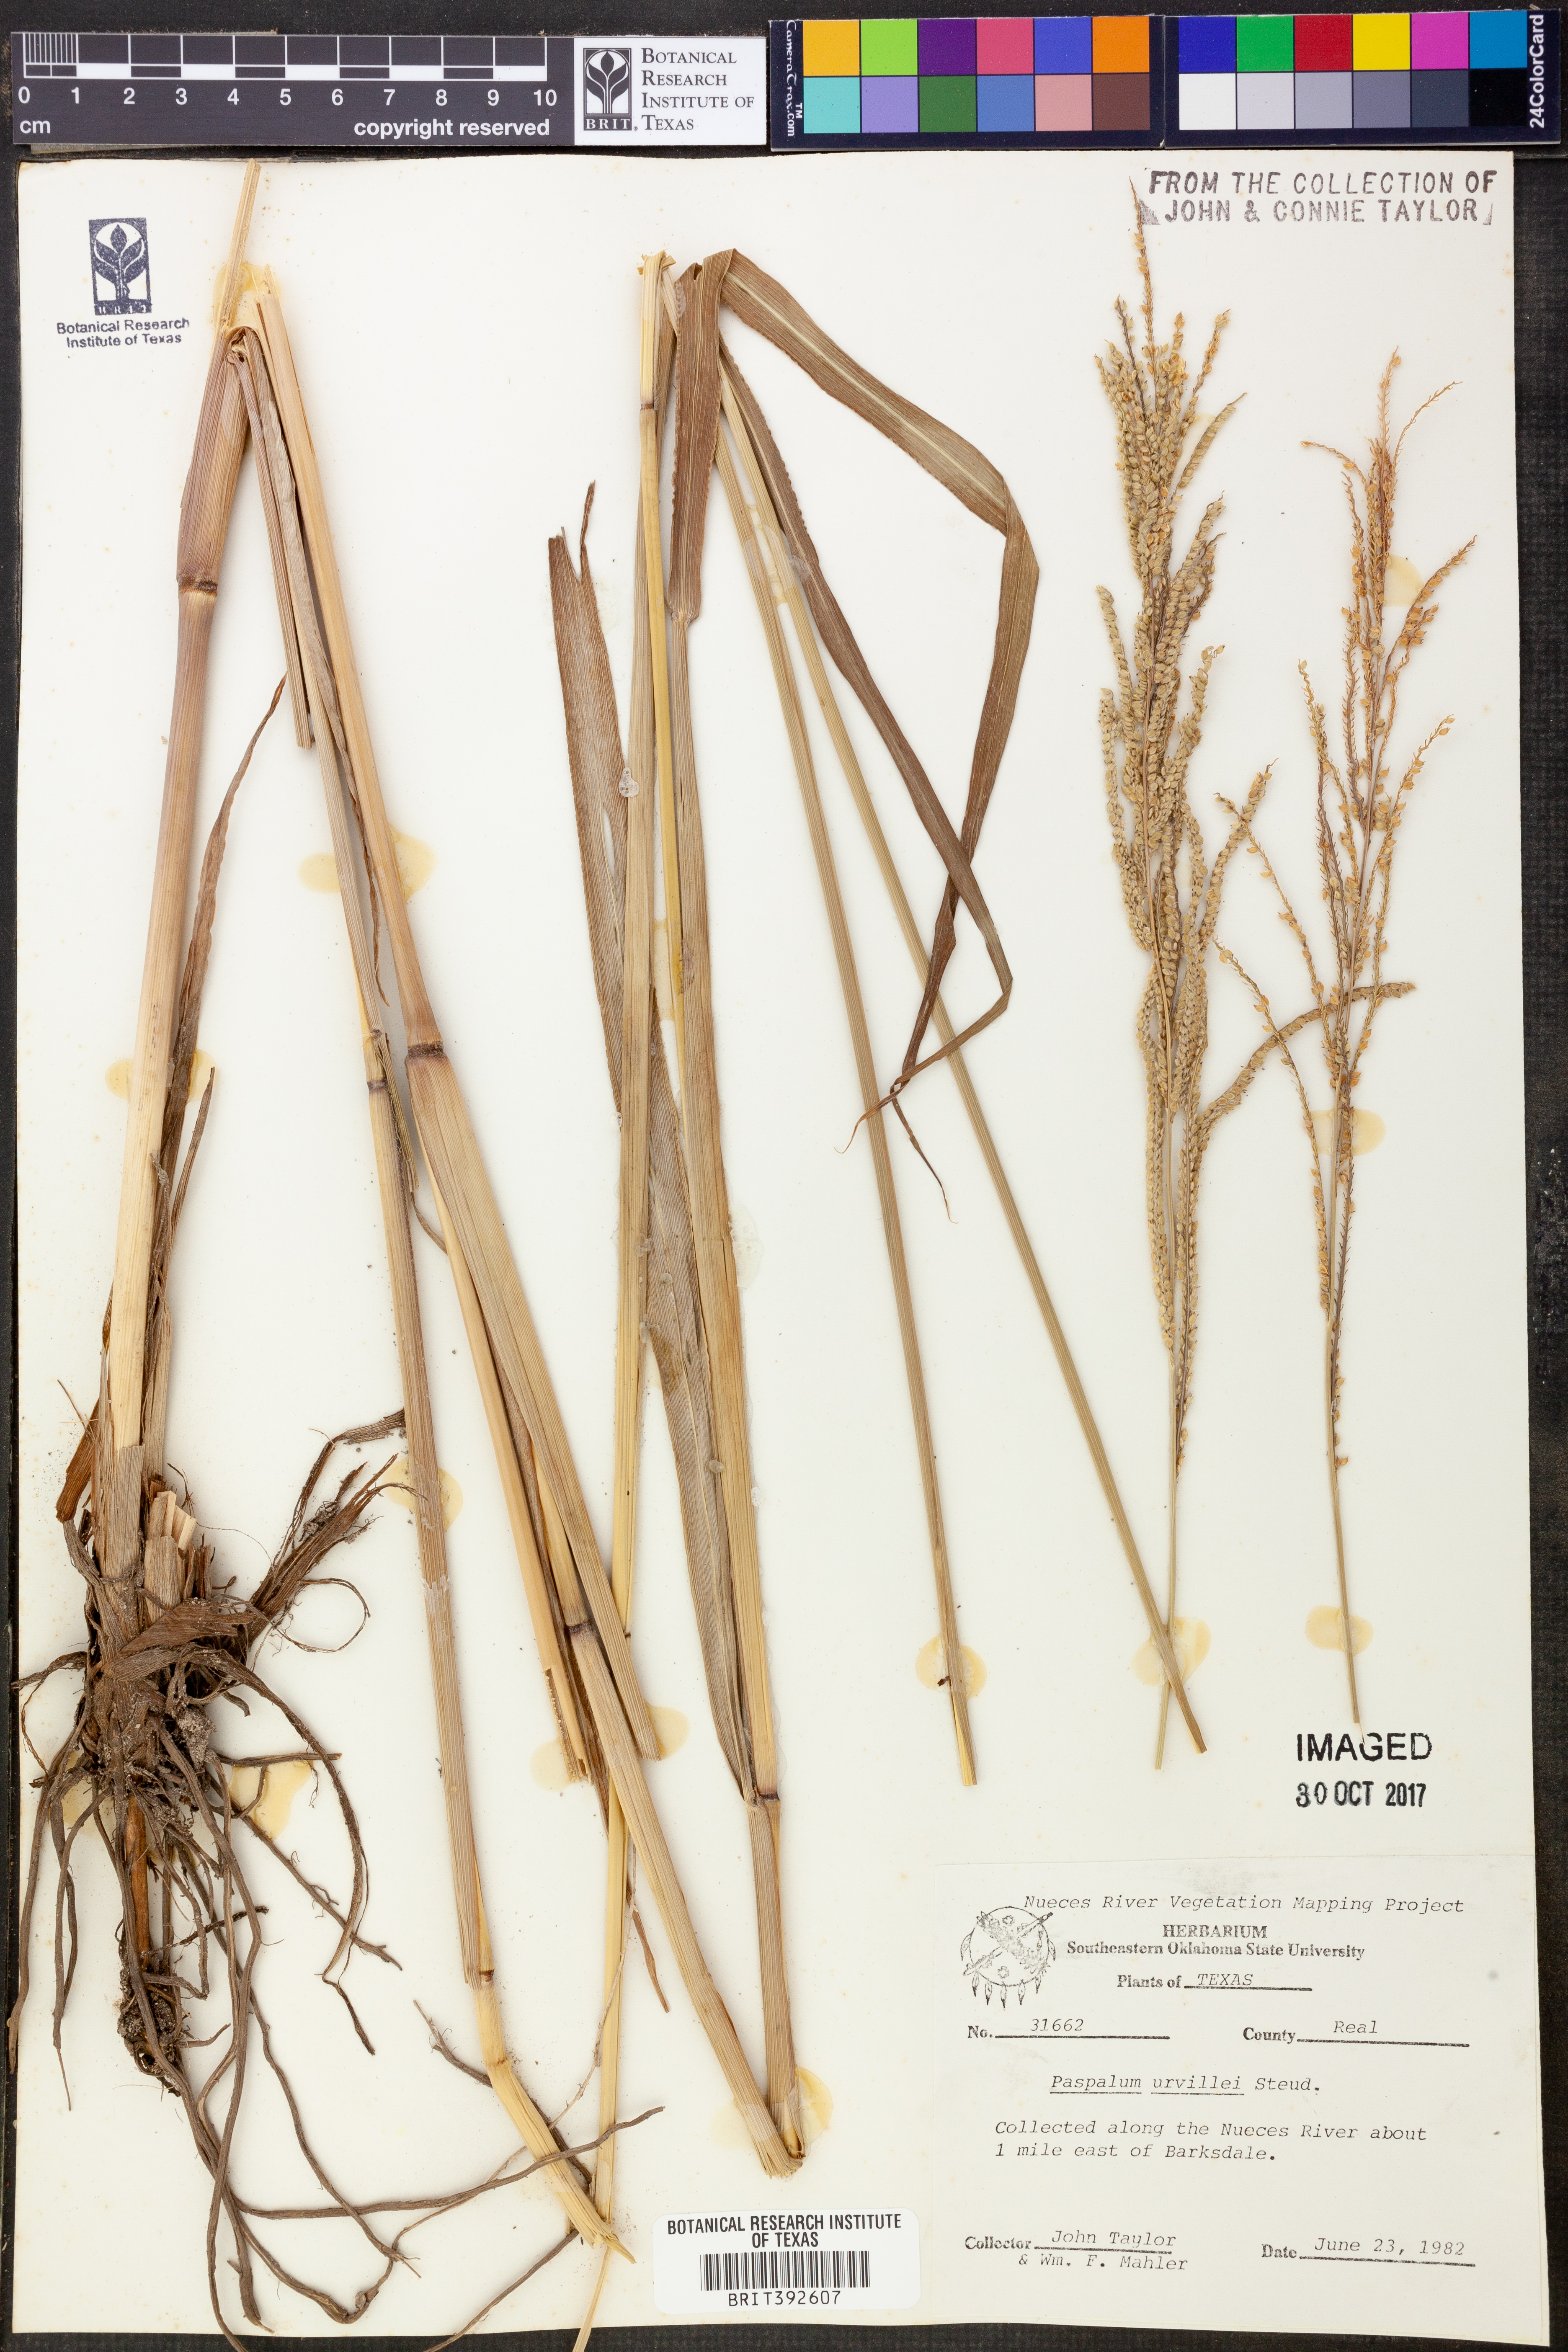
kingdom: Plantae
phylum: Tracheophyta
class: Liliopsida
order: Poales
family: Poaceae
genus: Paspalum
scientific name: Paspalum urvillei
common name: Vasey's grass
